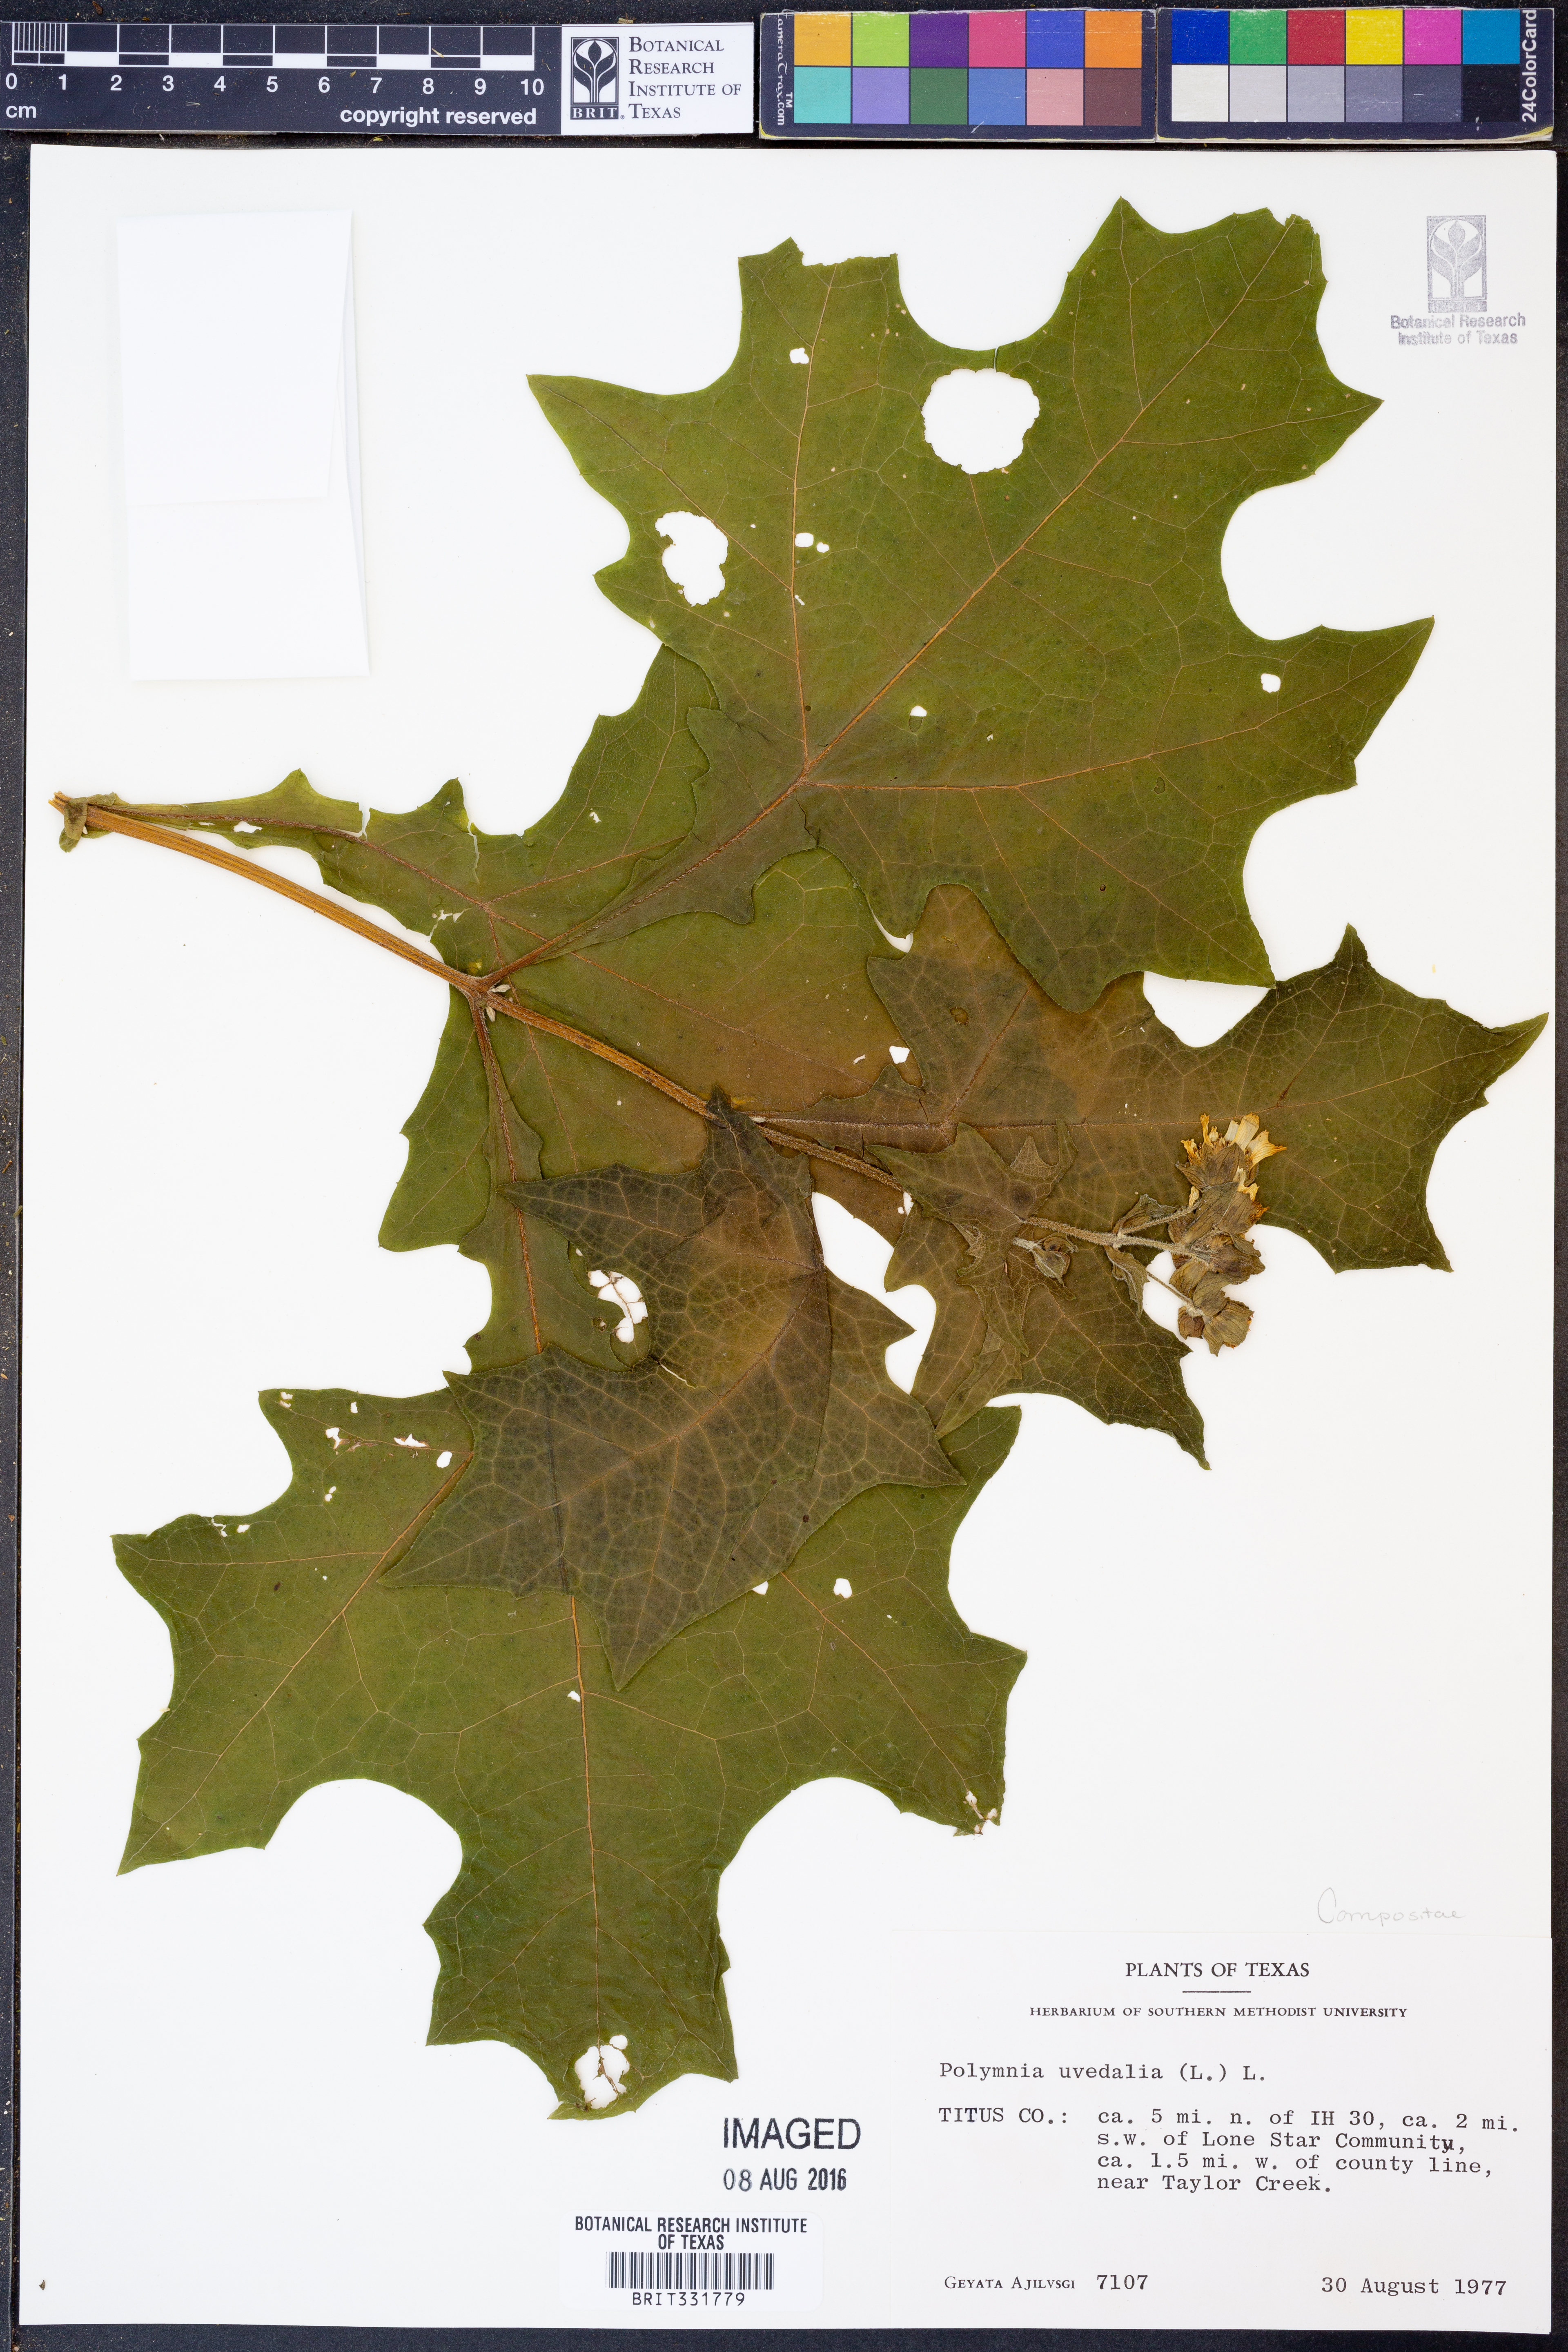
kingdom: Plantae
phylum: Tracheophyta
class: Magnoliopsida
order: Asterales
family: Asteraceae
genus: Smallanthus
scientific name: Smallanthus uvedalia
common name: Bear's-foot
